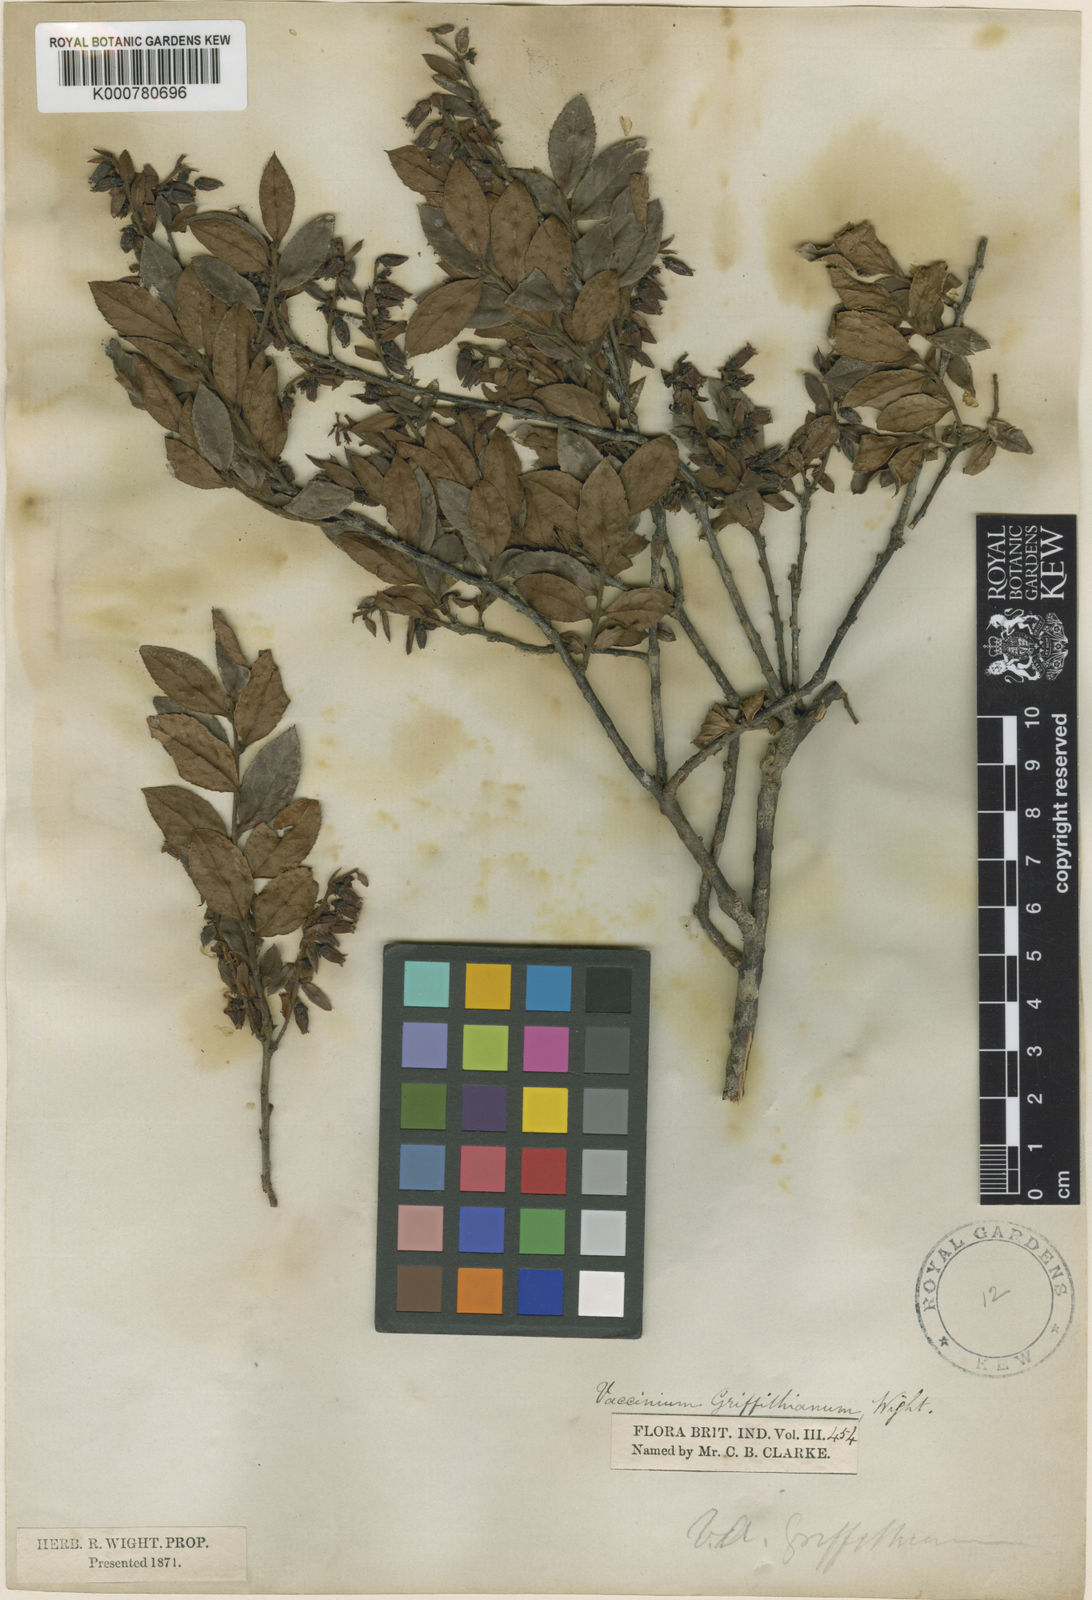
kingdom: Plantae
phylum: Tracheophyta
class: Magnoliopsida
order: Ericales
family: Ericaceae
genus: Vaccinium
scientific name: Vaccinium griffithianum
